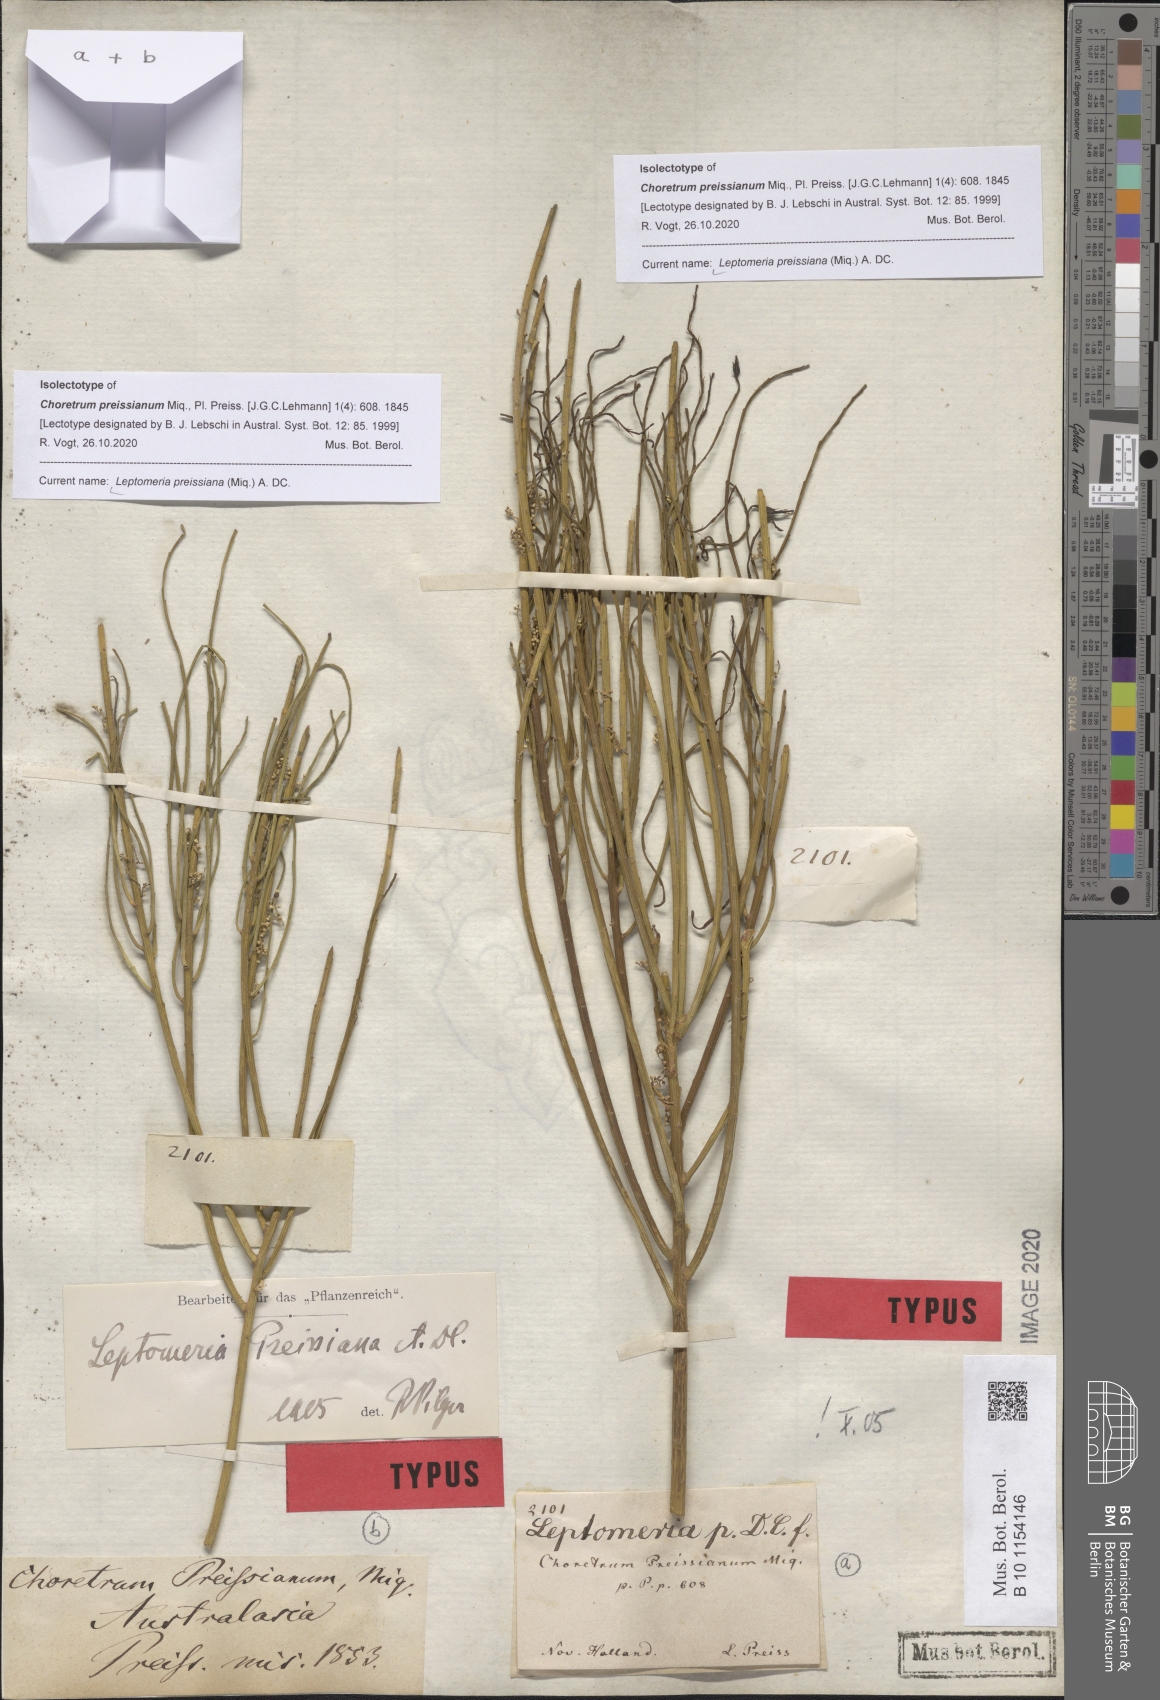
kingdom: Plantae
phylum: Tracheophyta
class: Magnoliopsida
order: Santalales
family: Amphorogynaceae
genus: Leptomeria
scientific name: Leptomeria preissiana
